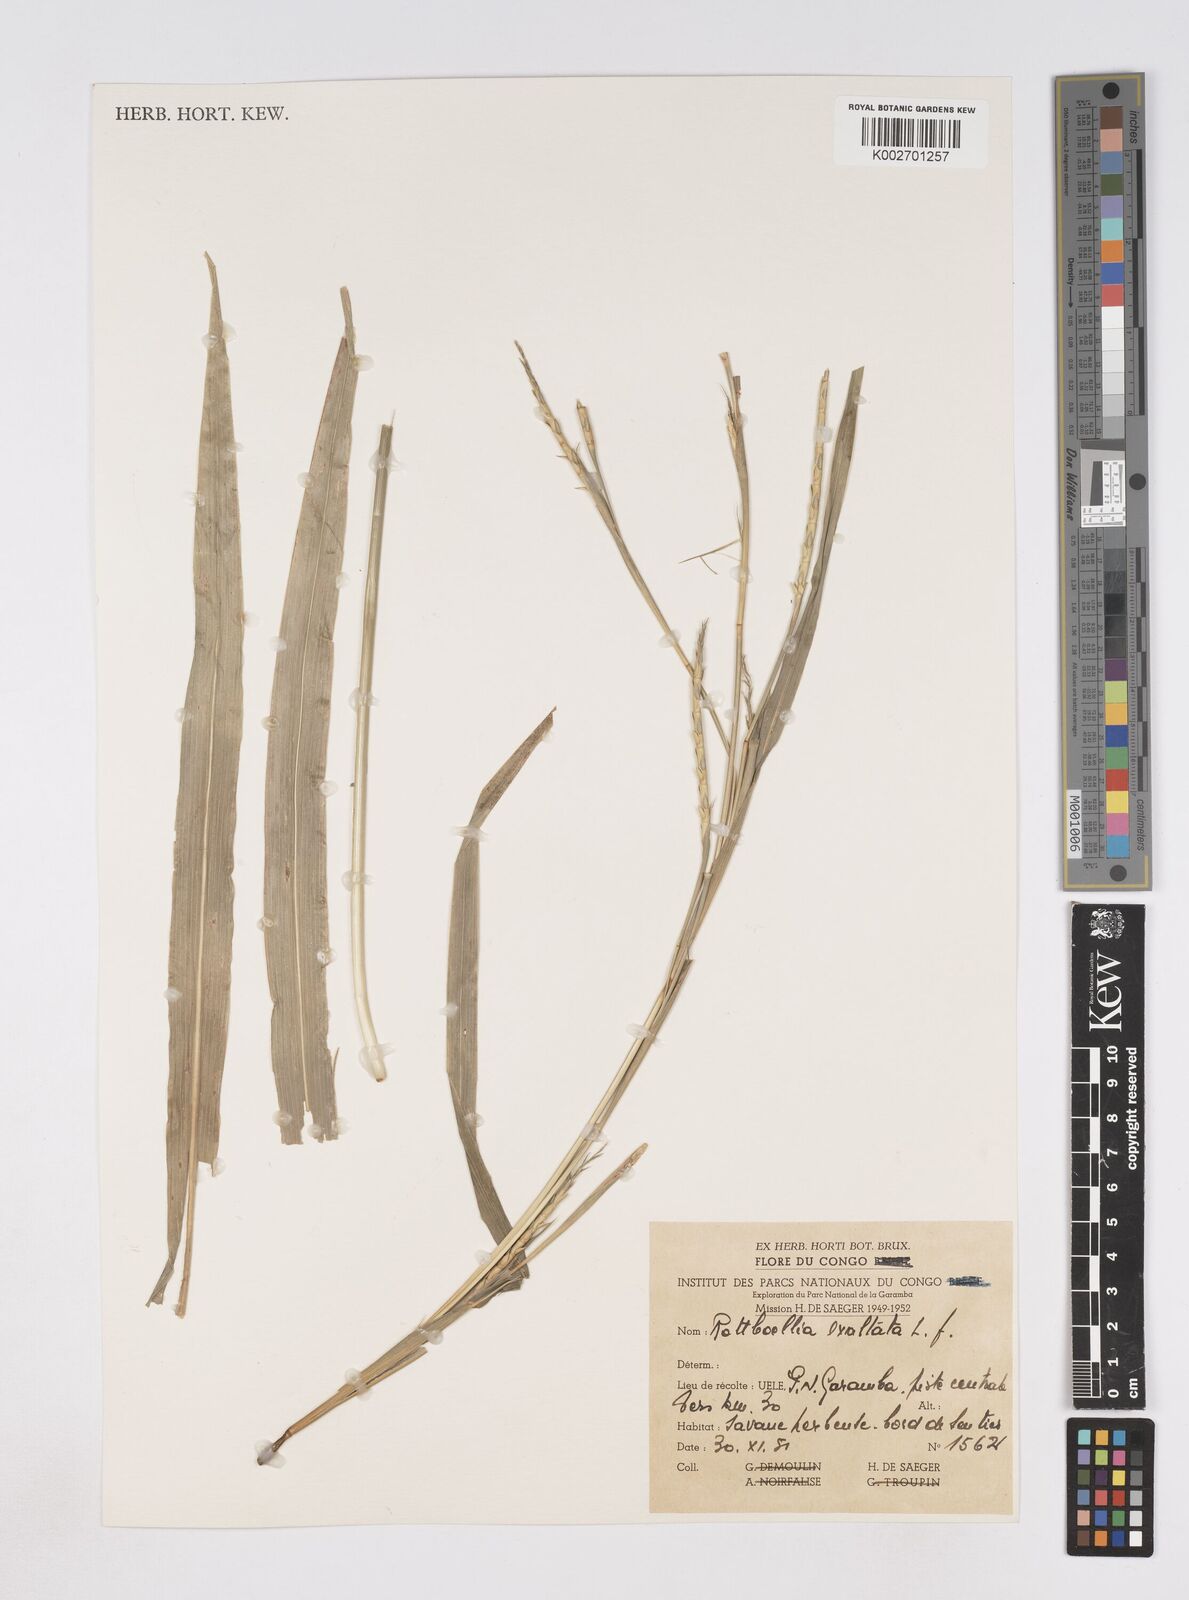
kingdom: Plantae
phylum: Tracheophyta
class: Liliopsida
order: Poales
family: Poaceae
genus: Rottboellia
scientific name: Rottboellia
